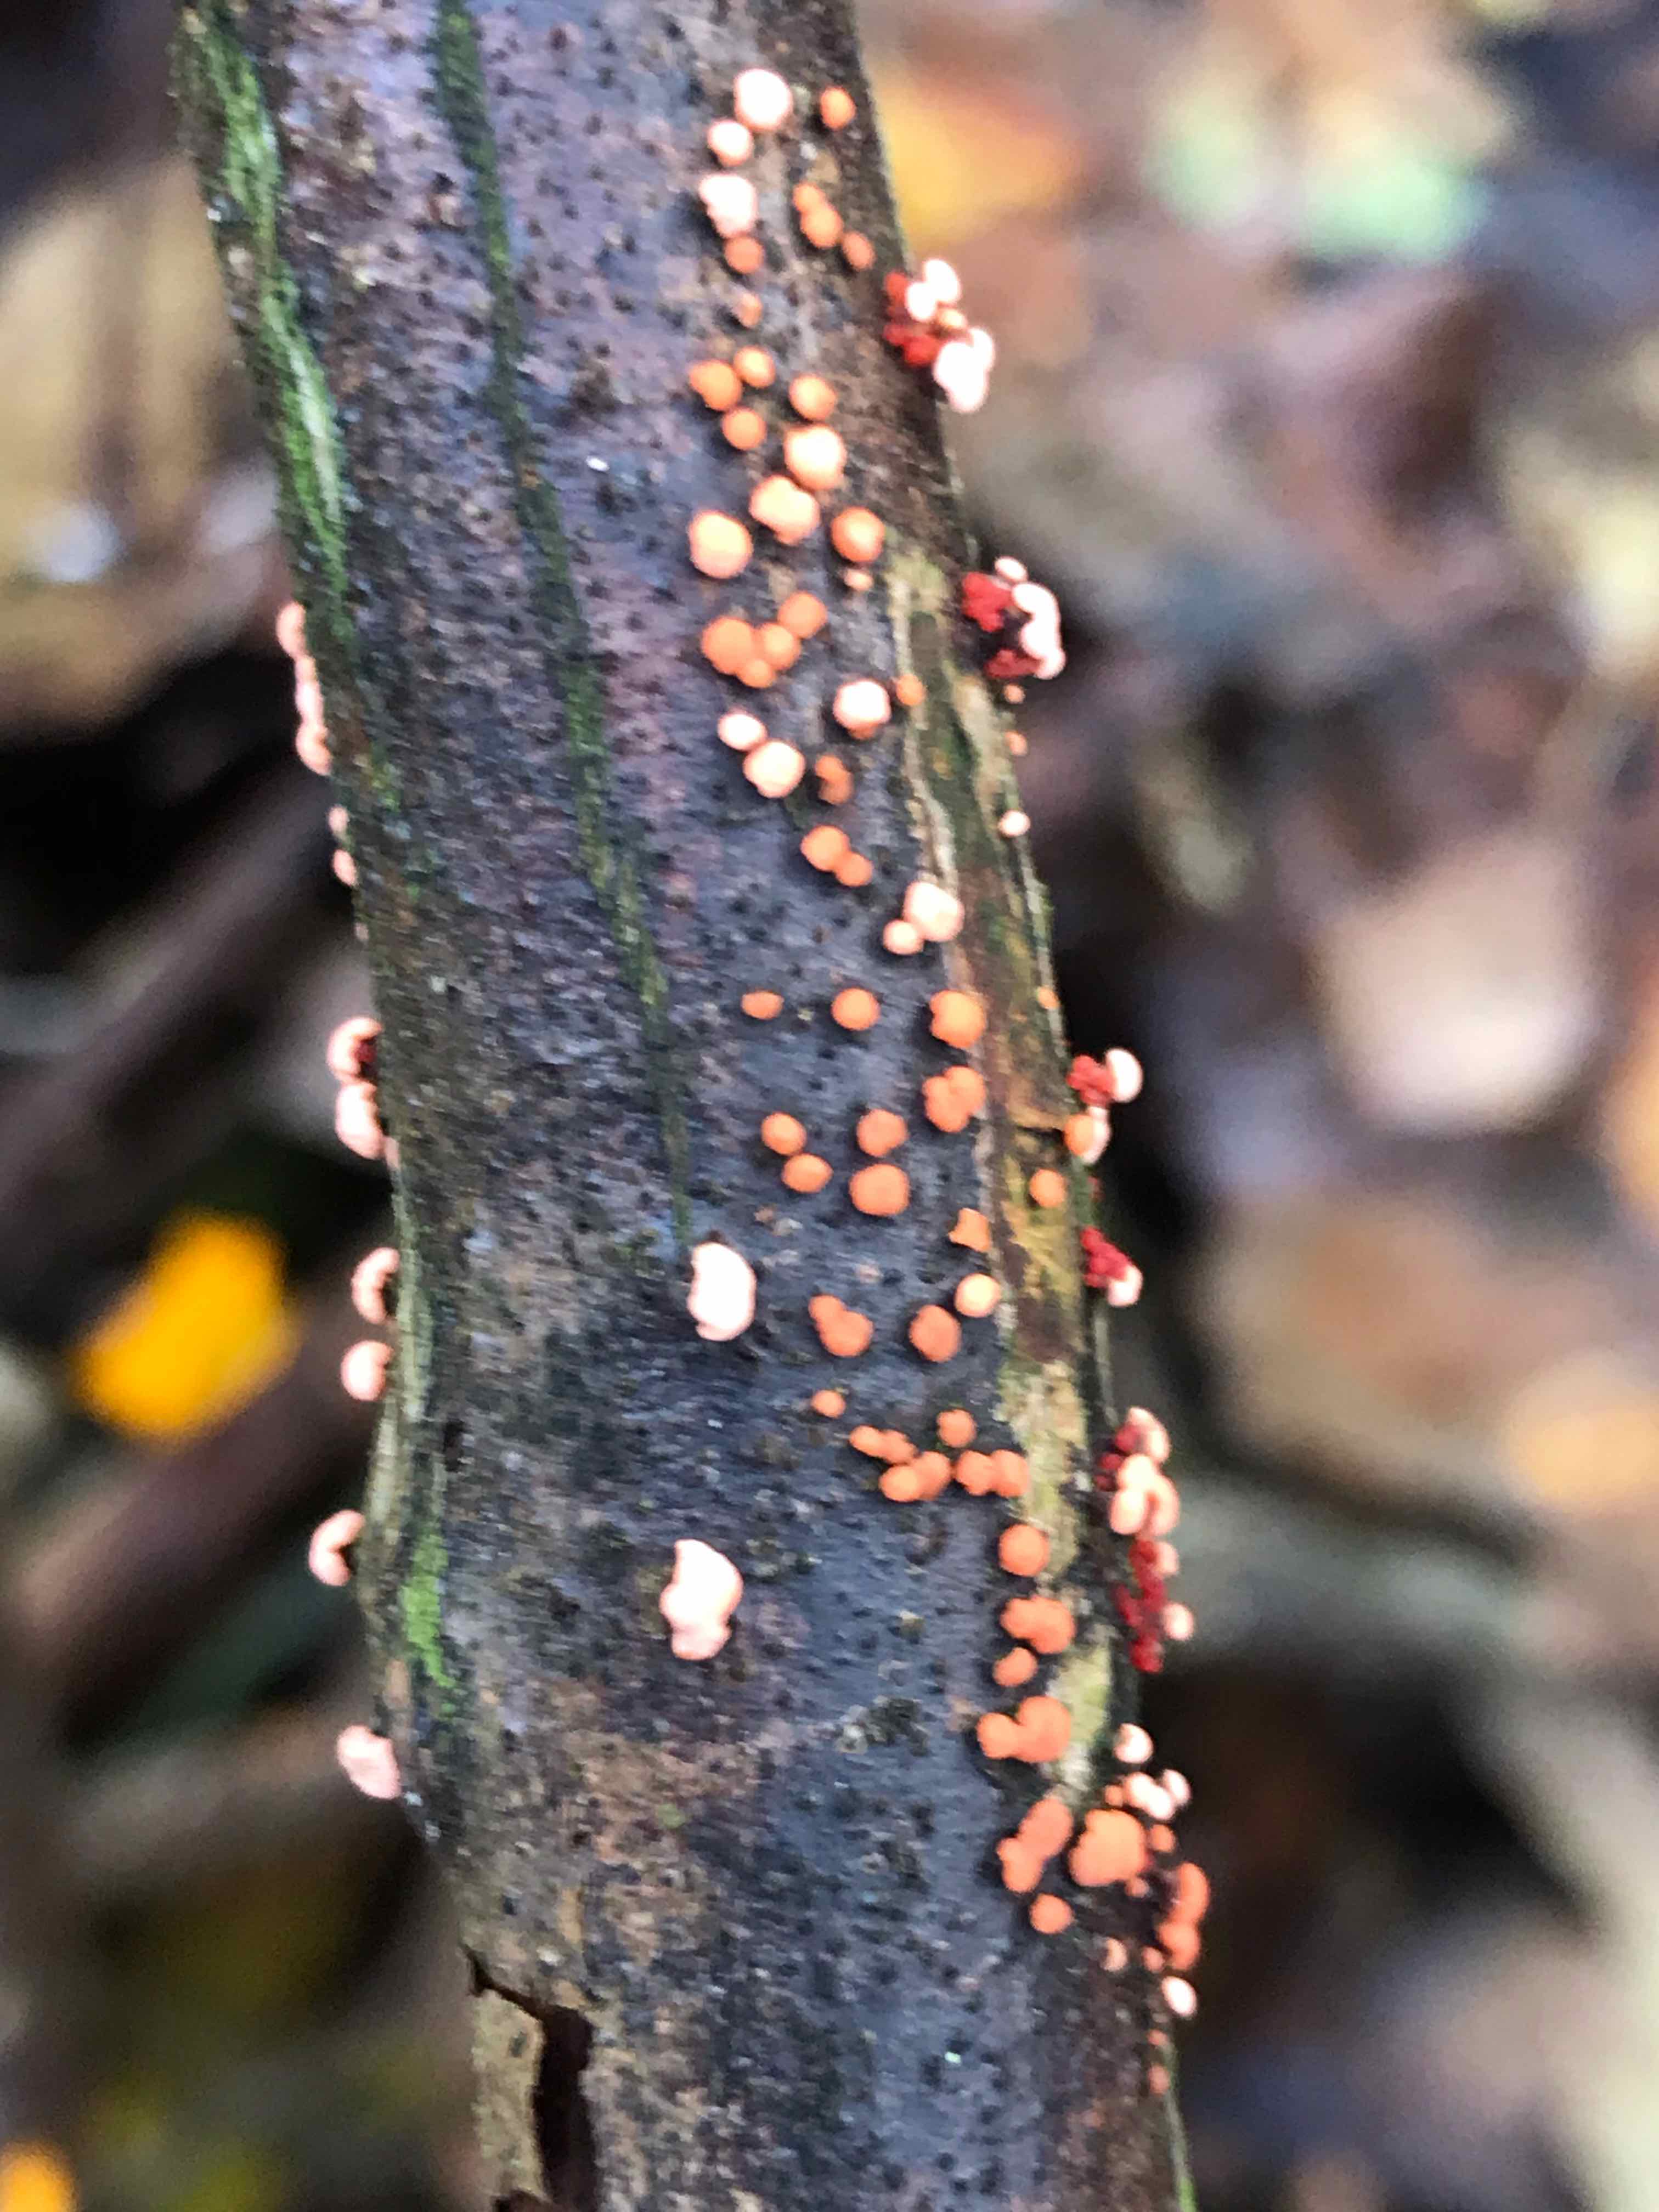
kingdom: Fungi
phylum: Ascomycota
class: Sordariomycetes
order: Hypocreales
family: Nectriaceae
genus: Nectria
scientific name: Nectria cinnabarina
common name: almindelig cinnobersvamp
